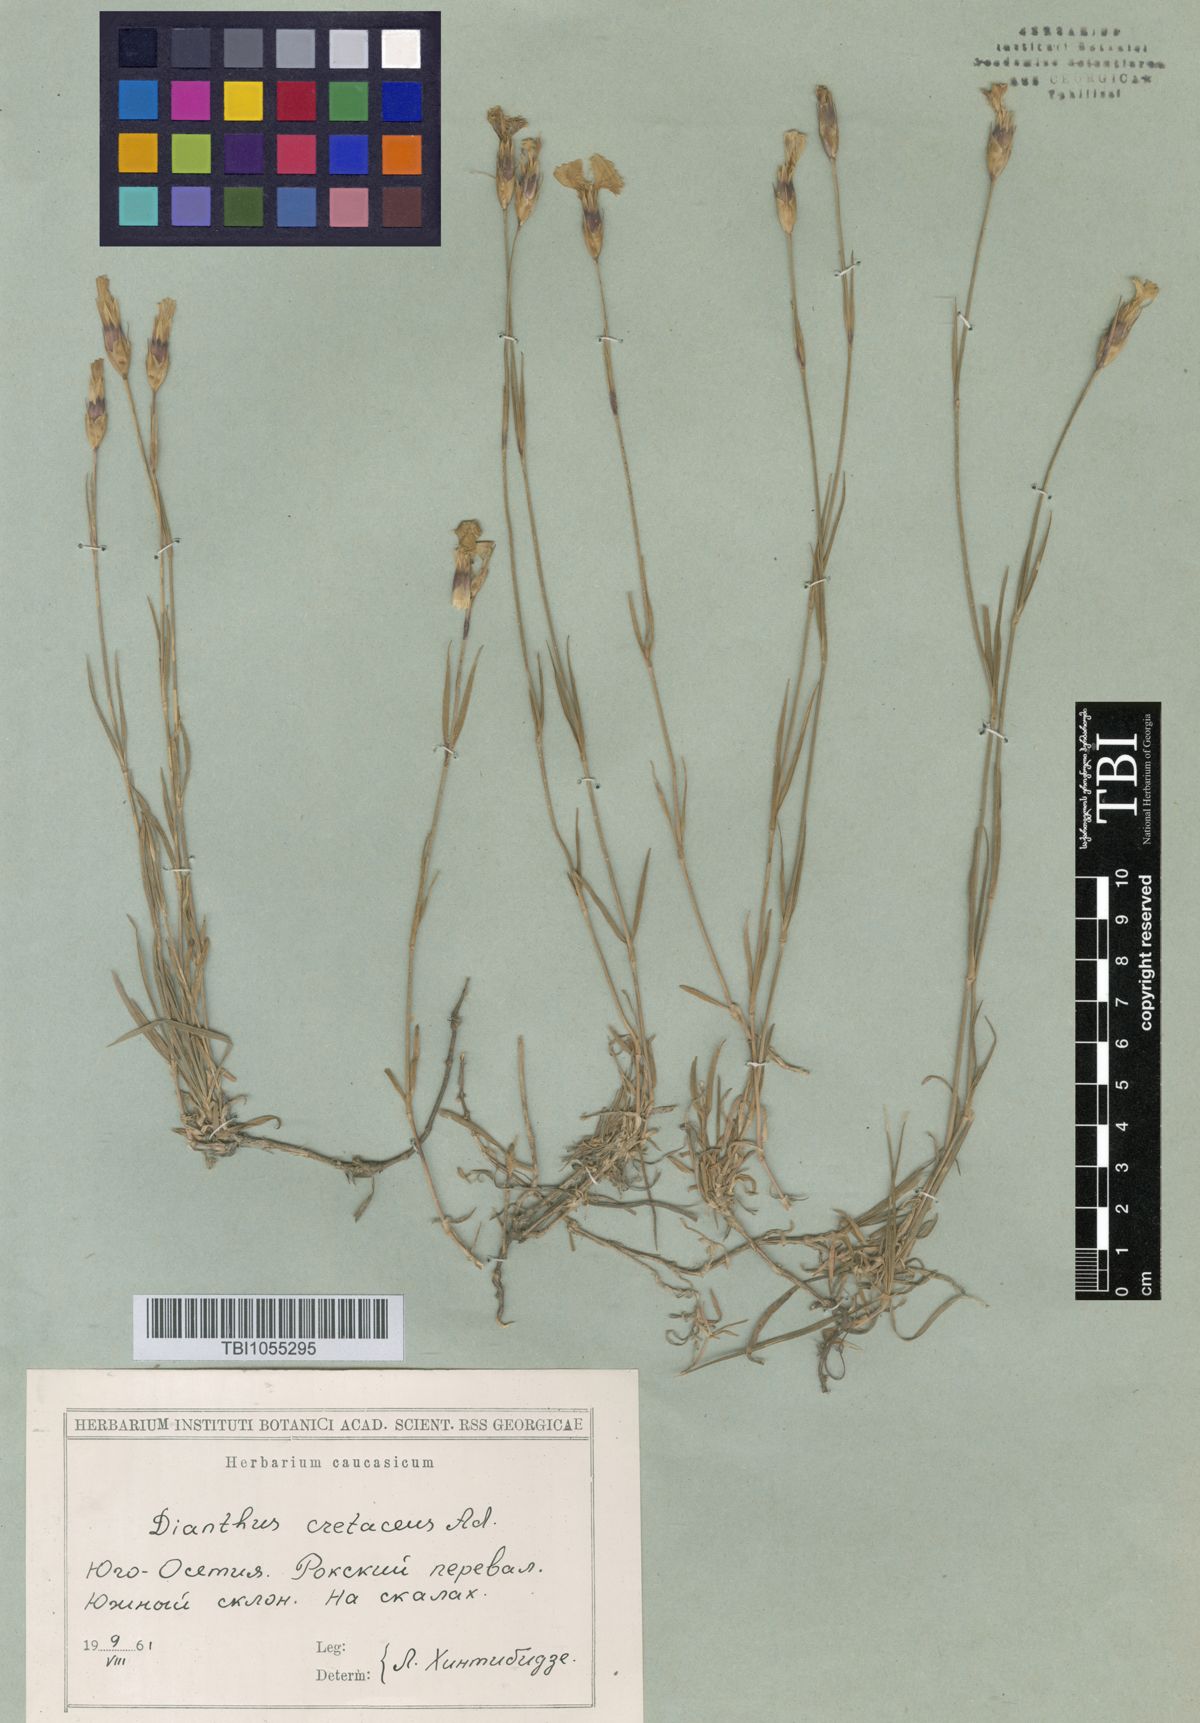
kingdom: Plantae
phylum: Tracheophyta
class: Magnoliopsida
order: Caryophyllales
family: Caryophyllaceae
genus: Dianthus
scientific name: Dianthus cretaceus
